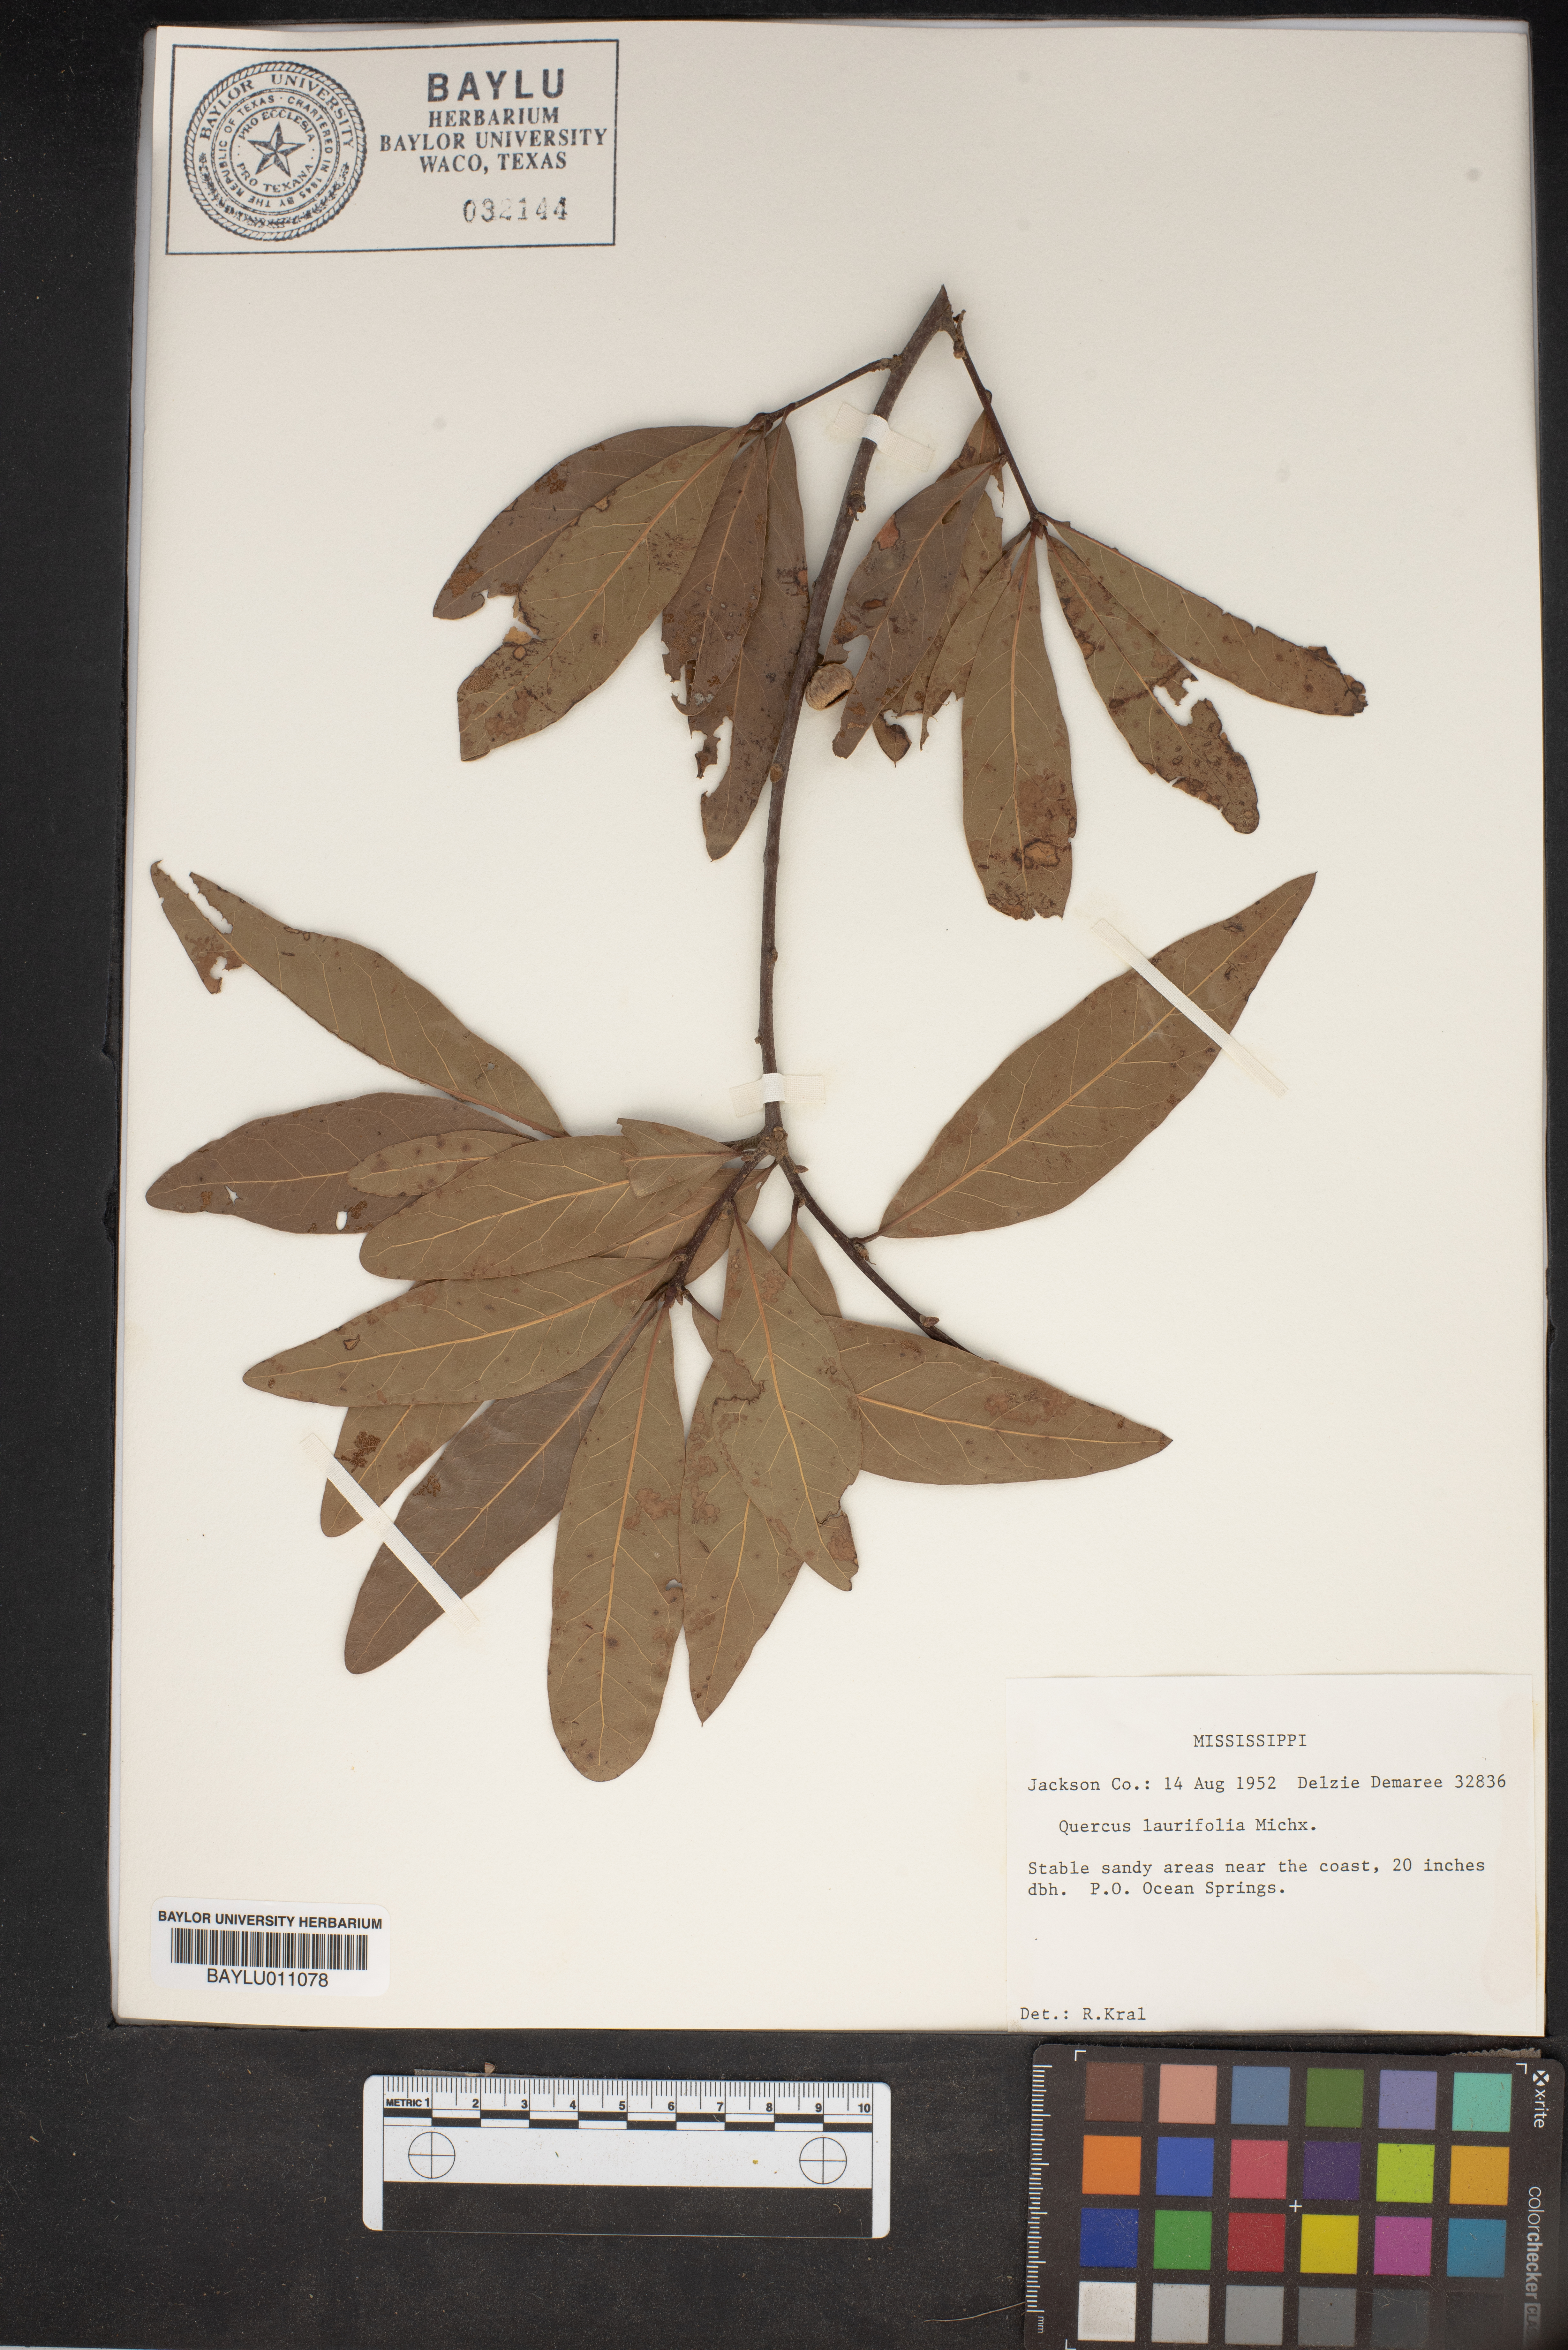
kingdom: Plantae
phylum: Tracheophyta
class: Magnoliopsida
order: Fagales
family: Fagaceae
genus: Quercus
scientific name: Quercus laurifolia
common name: Swamp laurel oak
